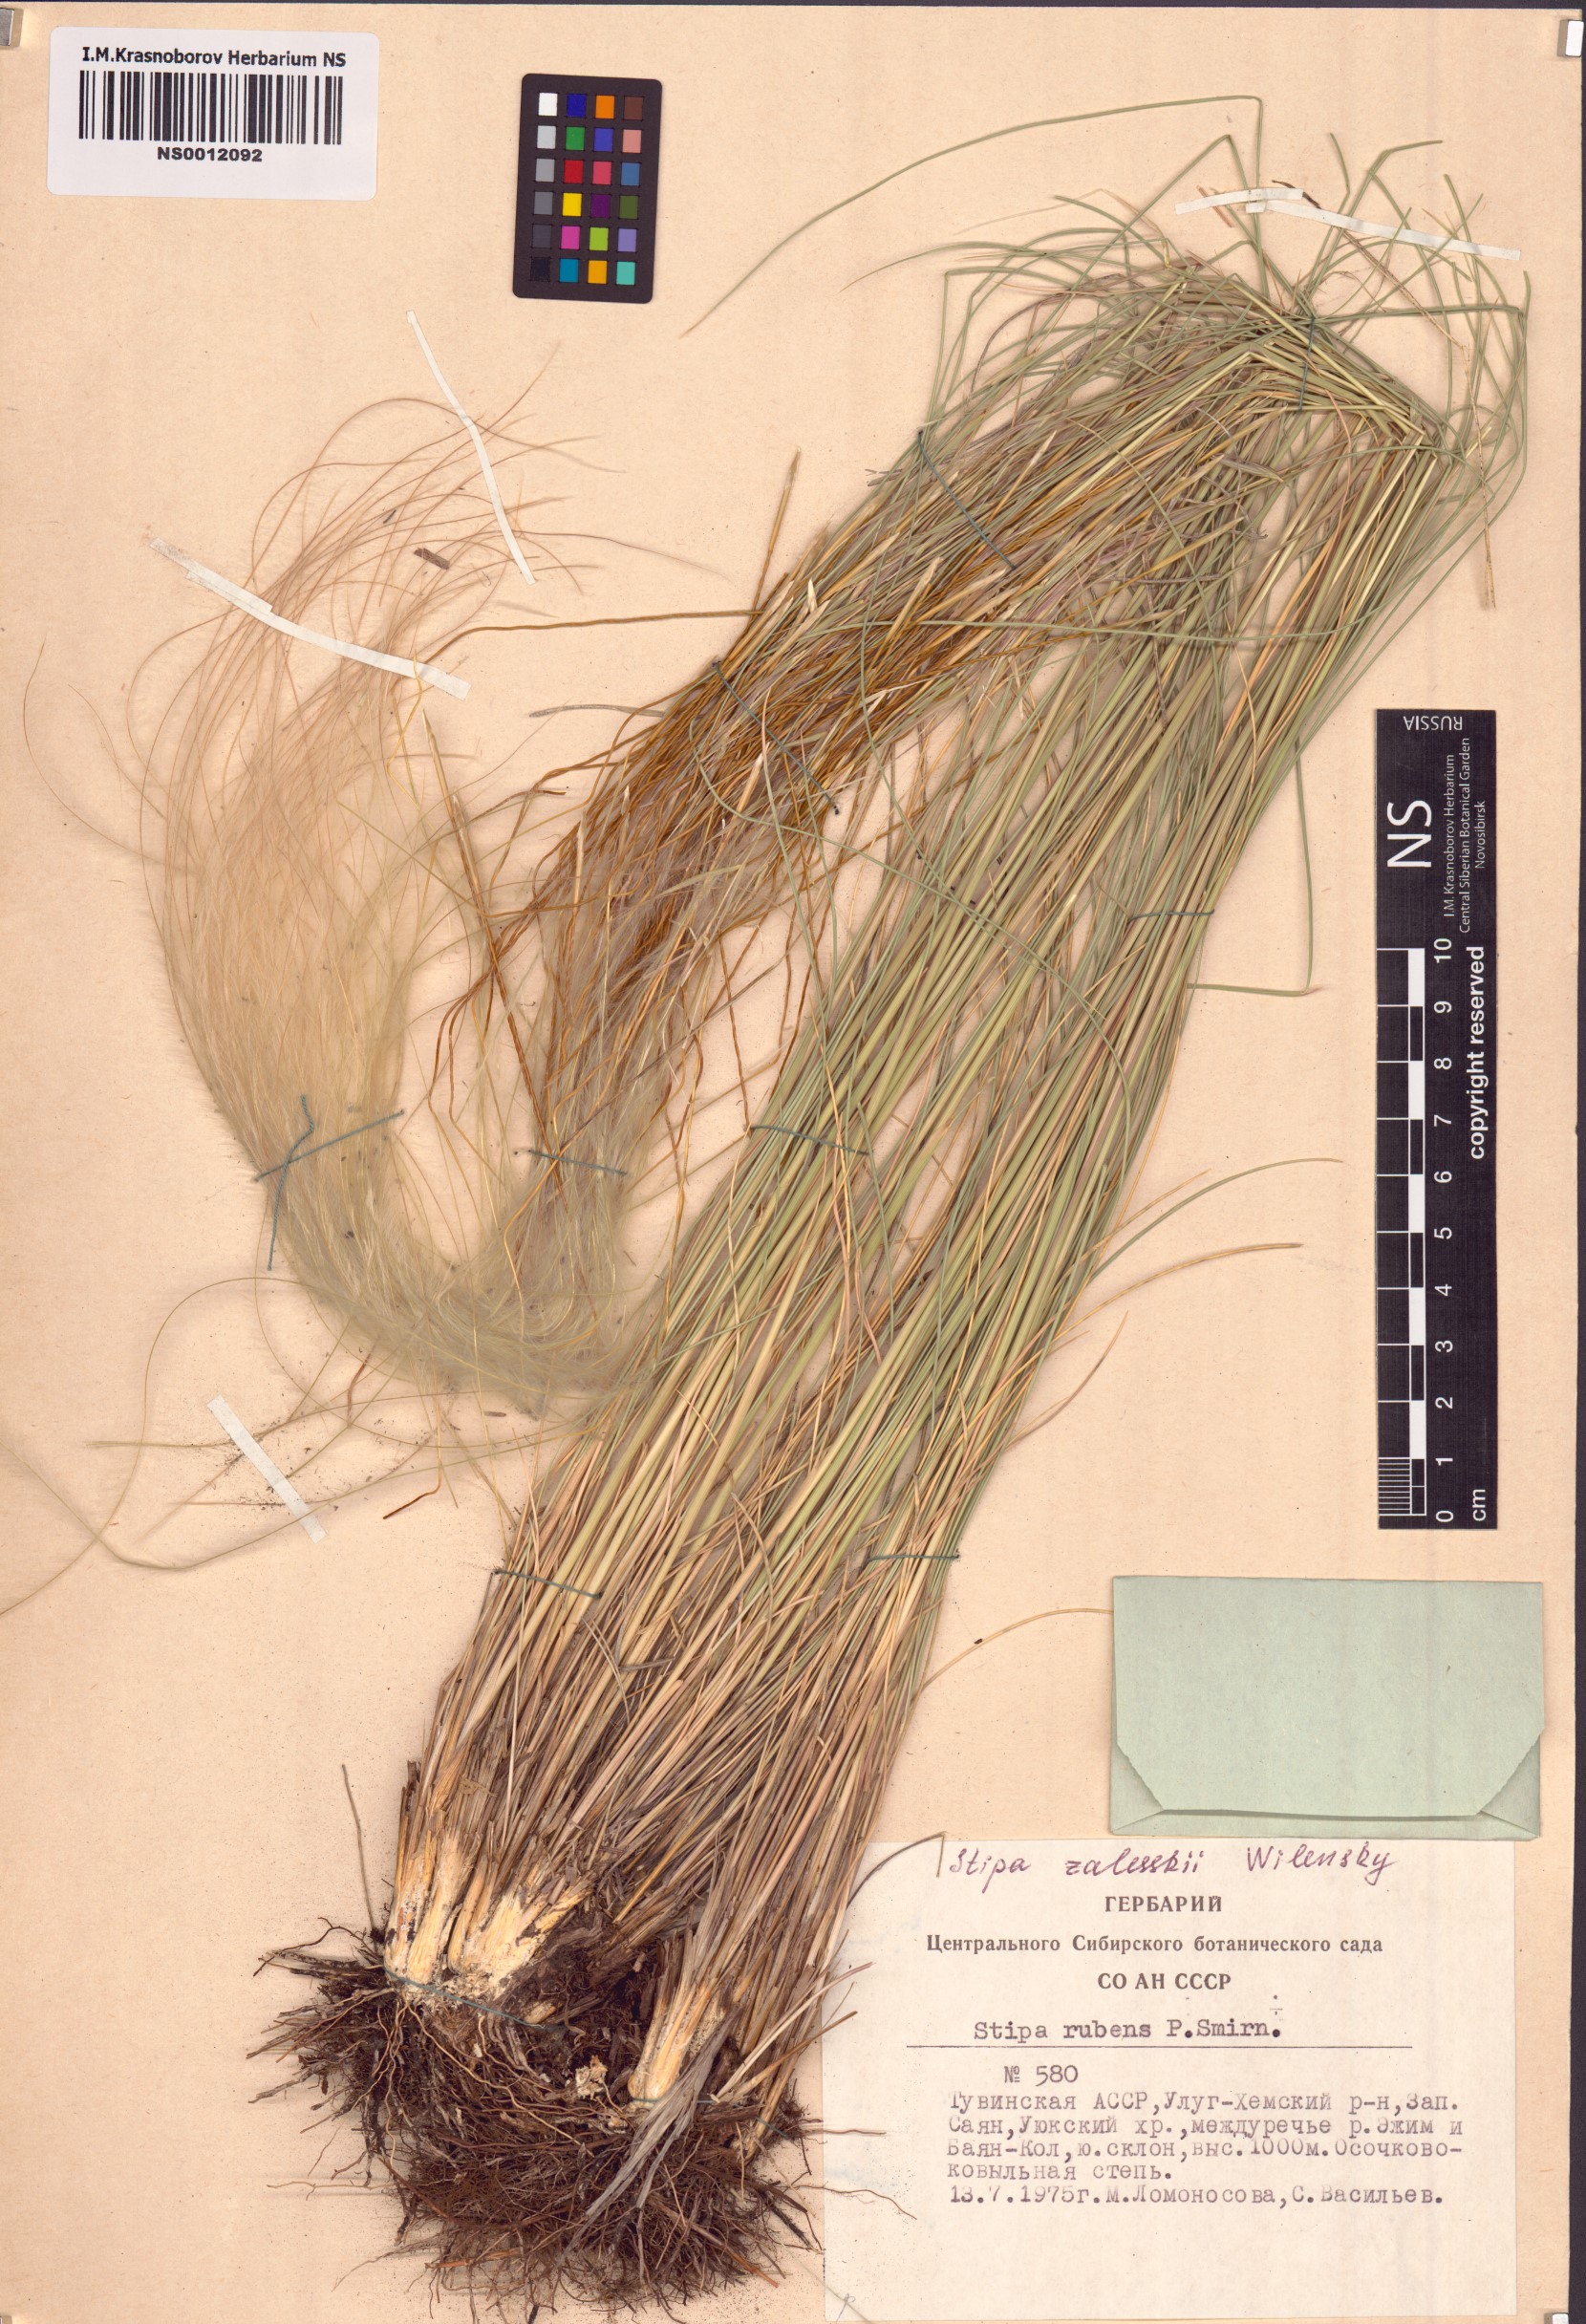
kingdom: Plantae
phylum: Tracheophyta
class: Liliopsida
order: Poales
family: Poaceae
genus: Stipa
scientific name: Stipa zalesskii
